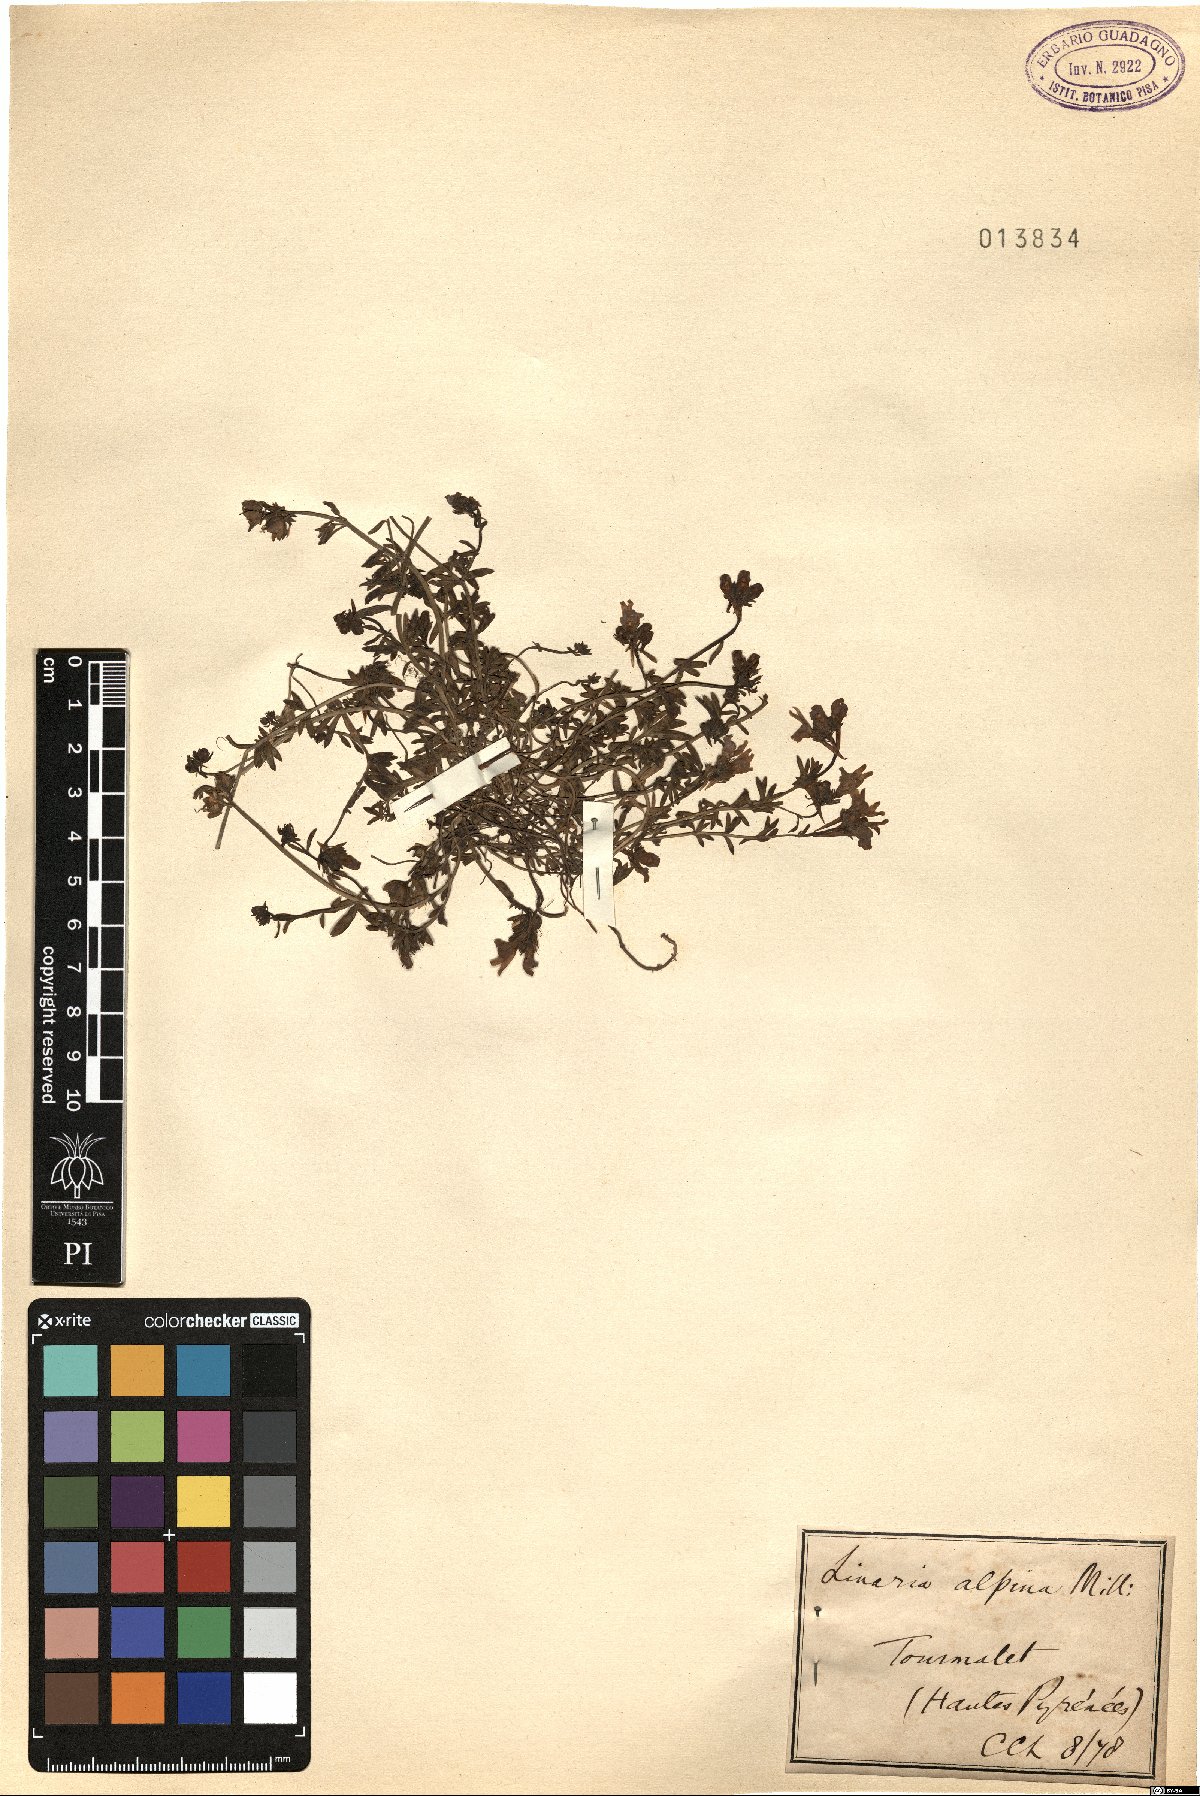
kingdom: Plantae
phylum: Tracheophyta
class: Magnoliopsida
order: Lamiales
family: Plantaginaceae
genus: Linaria
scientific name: Linaria alpina
